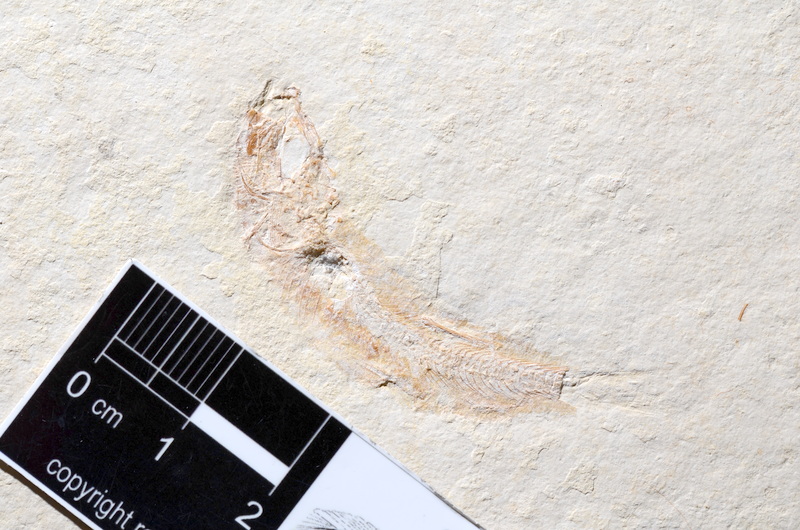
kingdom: Animalia
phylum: Chordata
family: Ascalaboidae
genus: Tharsis
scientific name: Tharsis dubius
